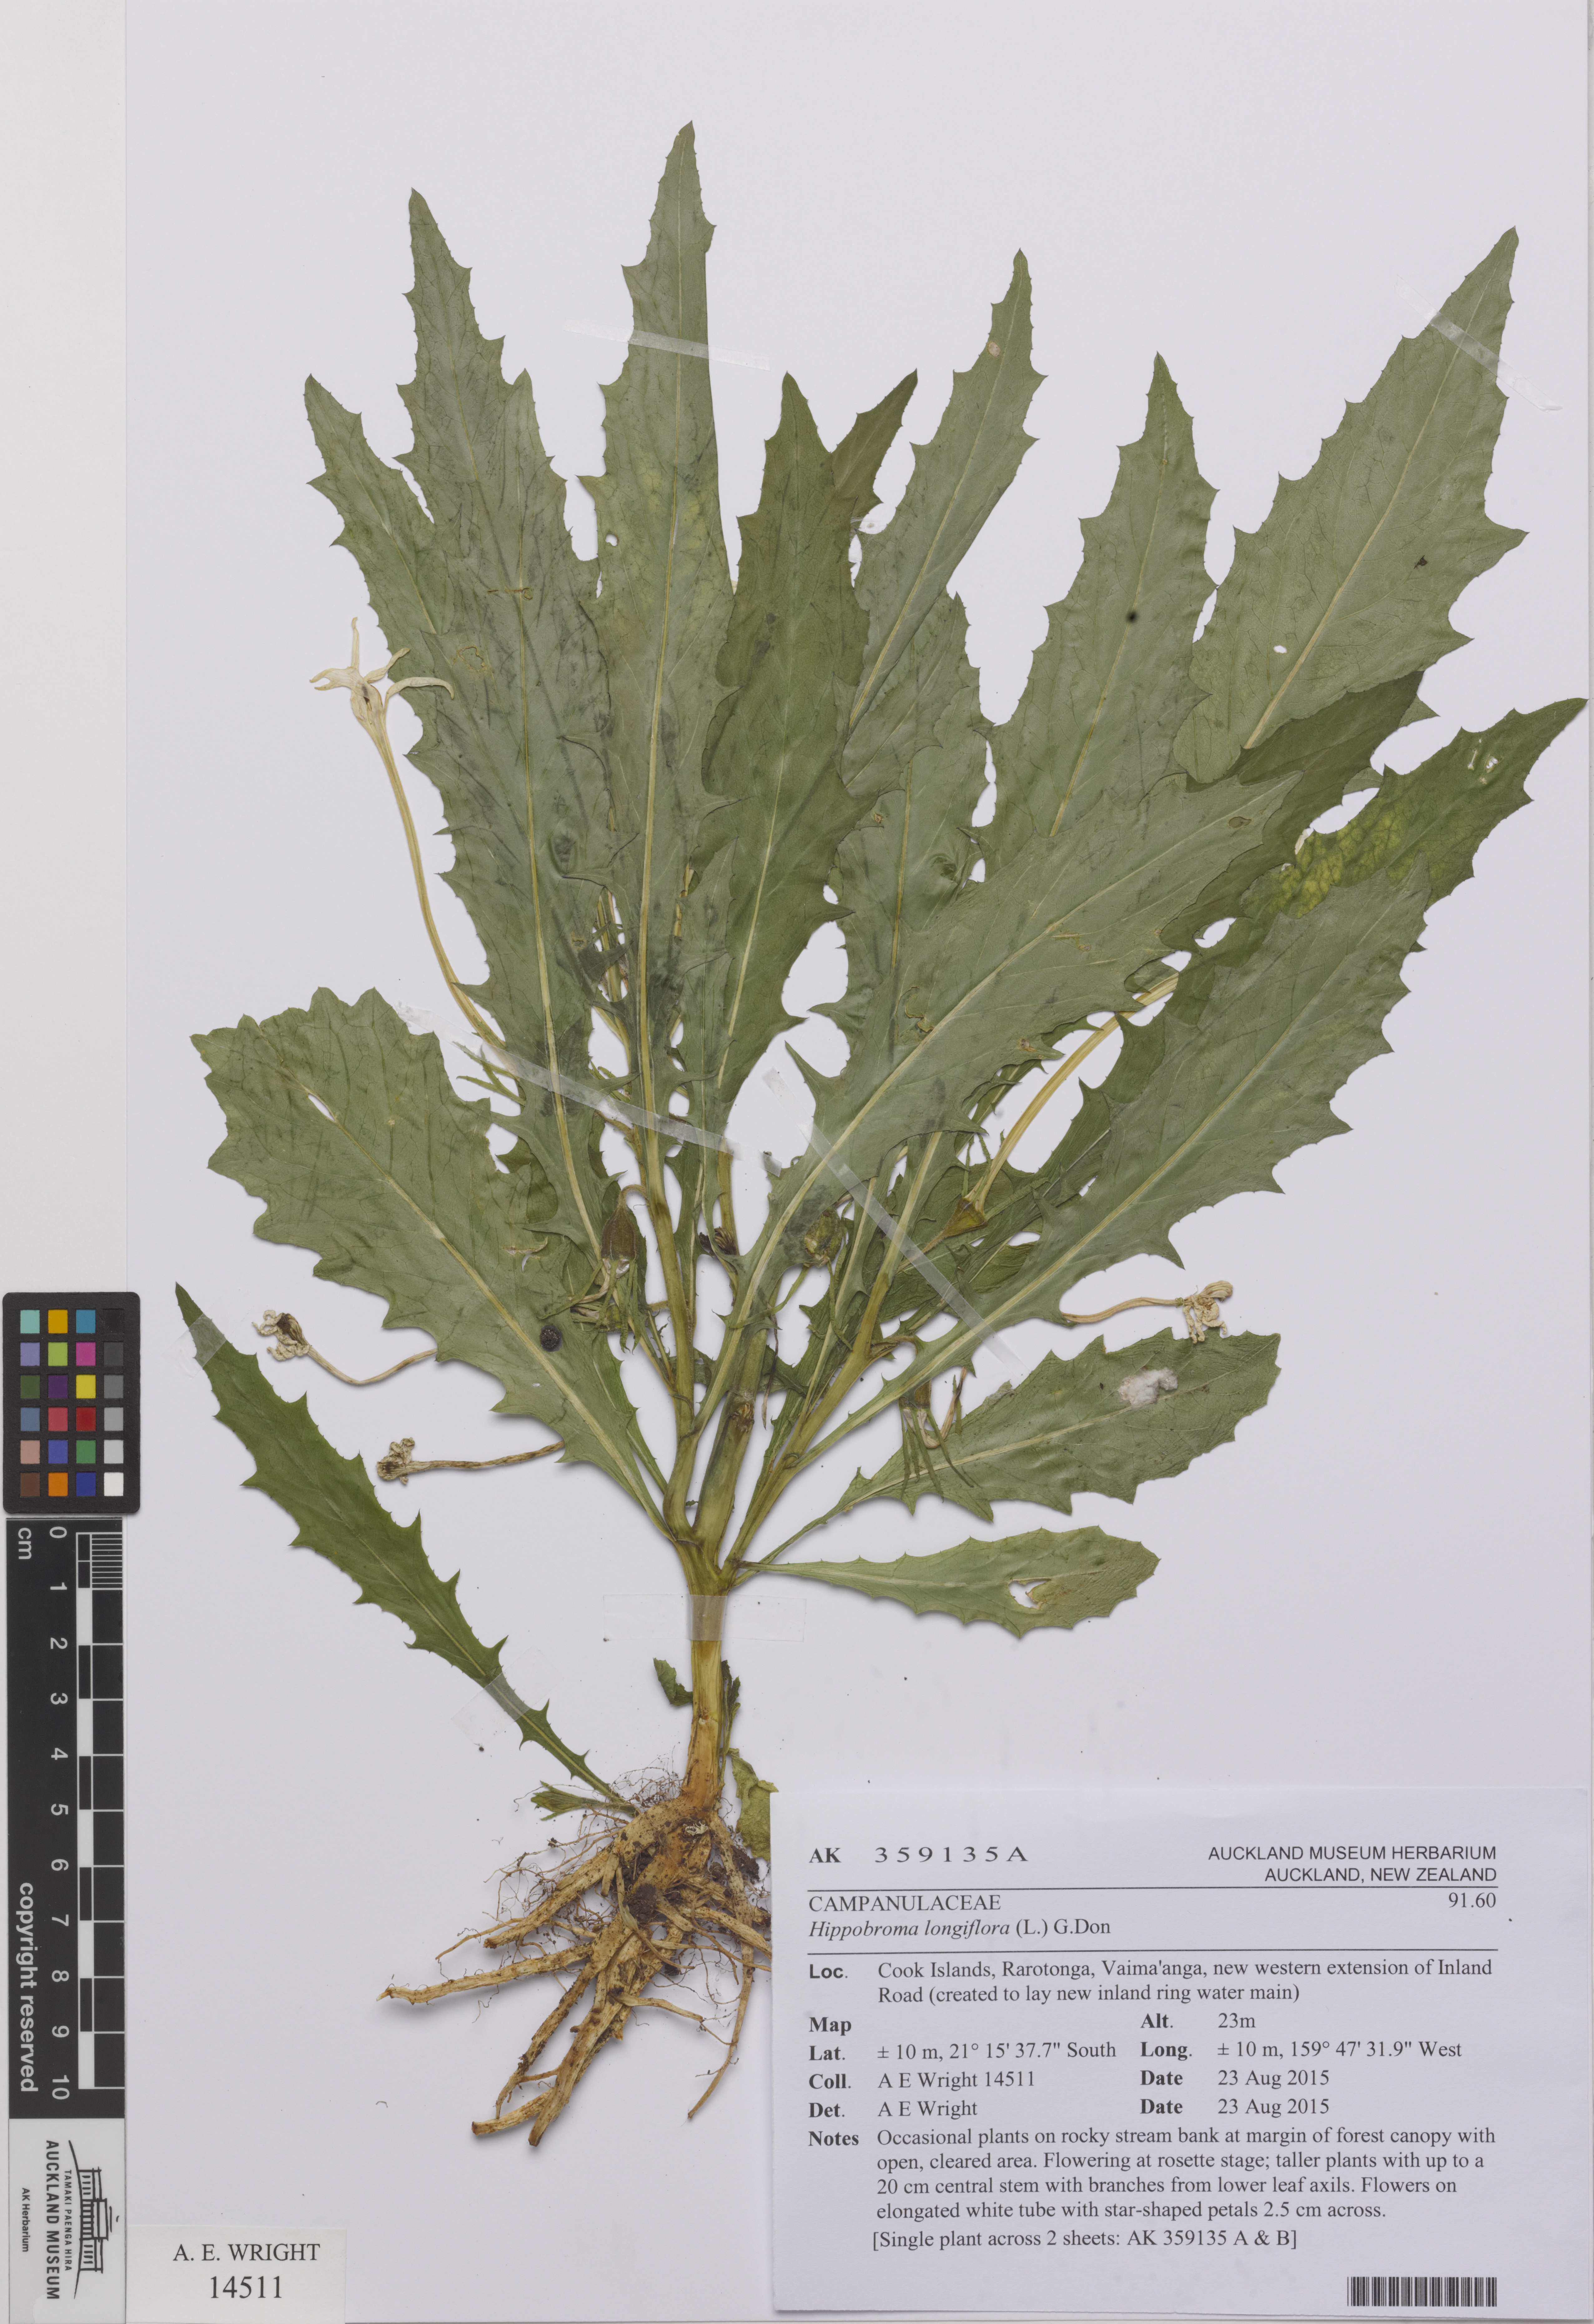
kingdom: Plantae
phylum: Tracheophyta
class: Magnoliopsida
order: Asterales
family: Campanulaceae
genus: Hippobroma
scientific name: Hippobroma longiflora
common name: Madamfate
